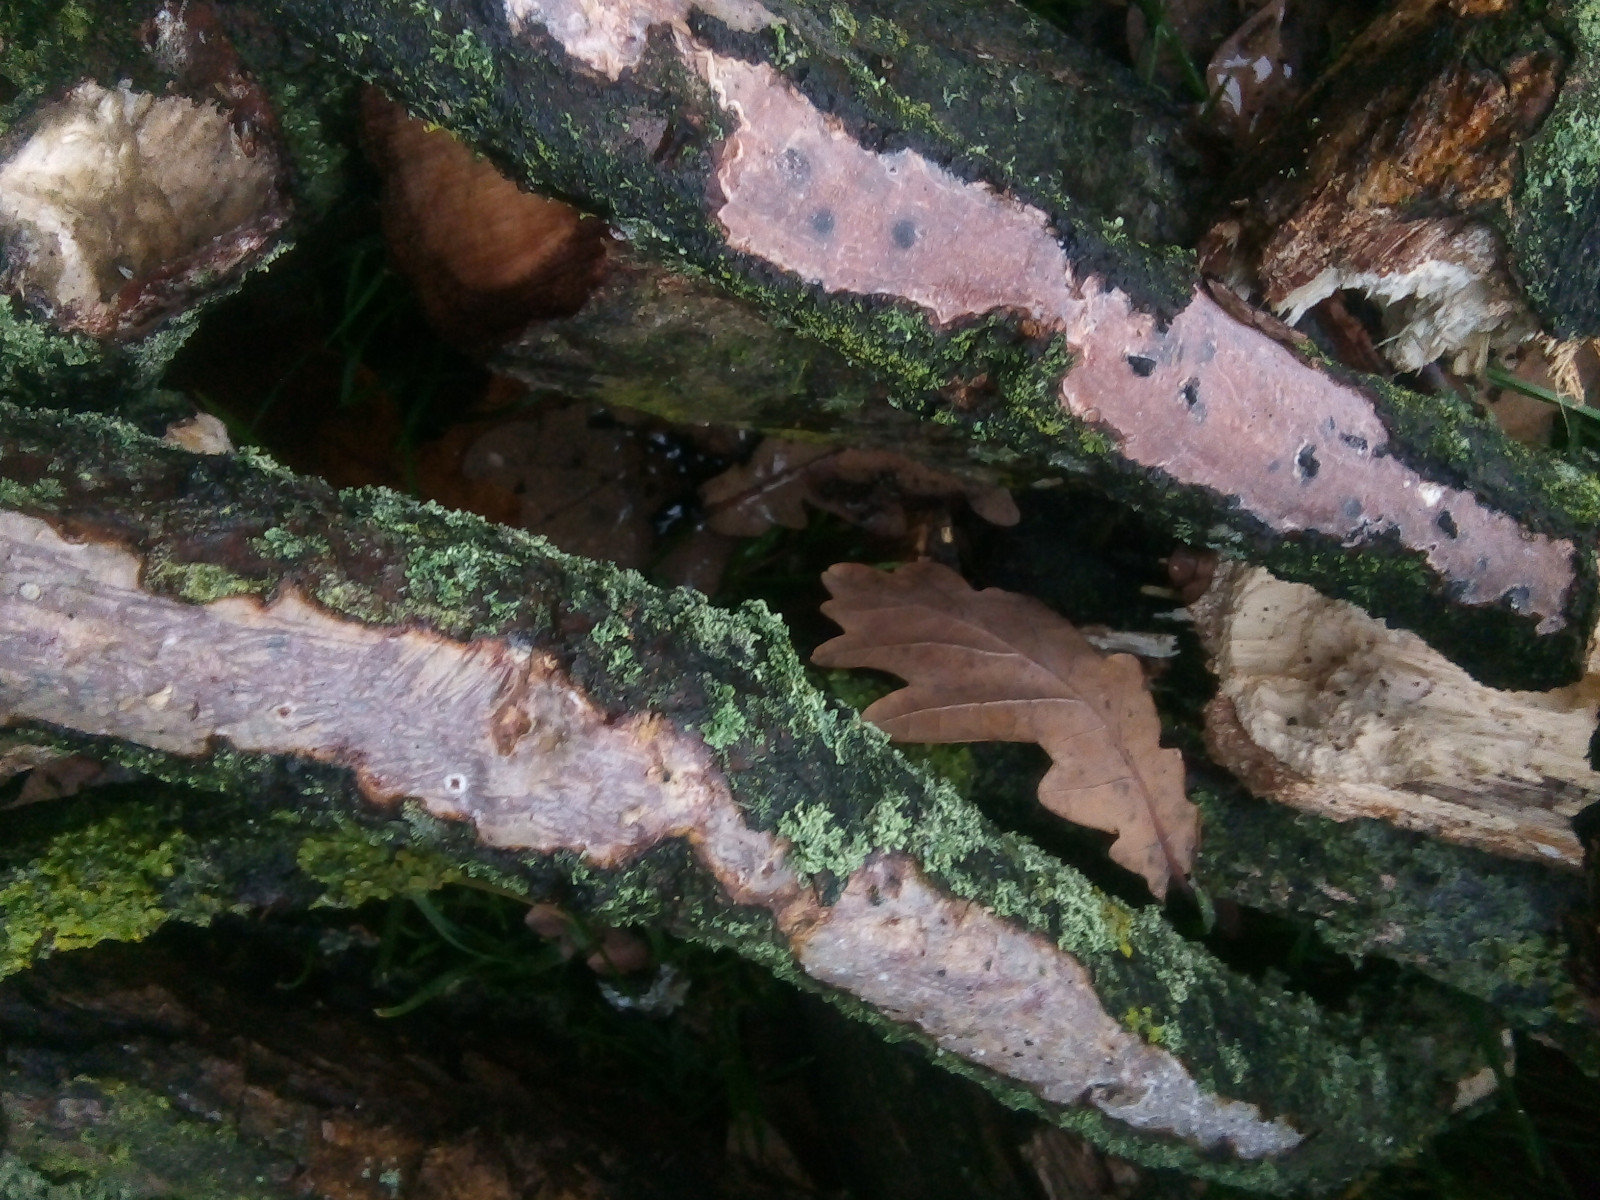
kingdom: Fungi
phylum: Basidiomycota
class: Agaricomycetes
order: Corticiales
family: Vuilleminiaceae
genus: Vuilleminia
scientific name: Vuilleminia comedens
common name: almindelig barksprænger
